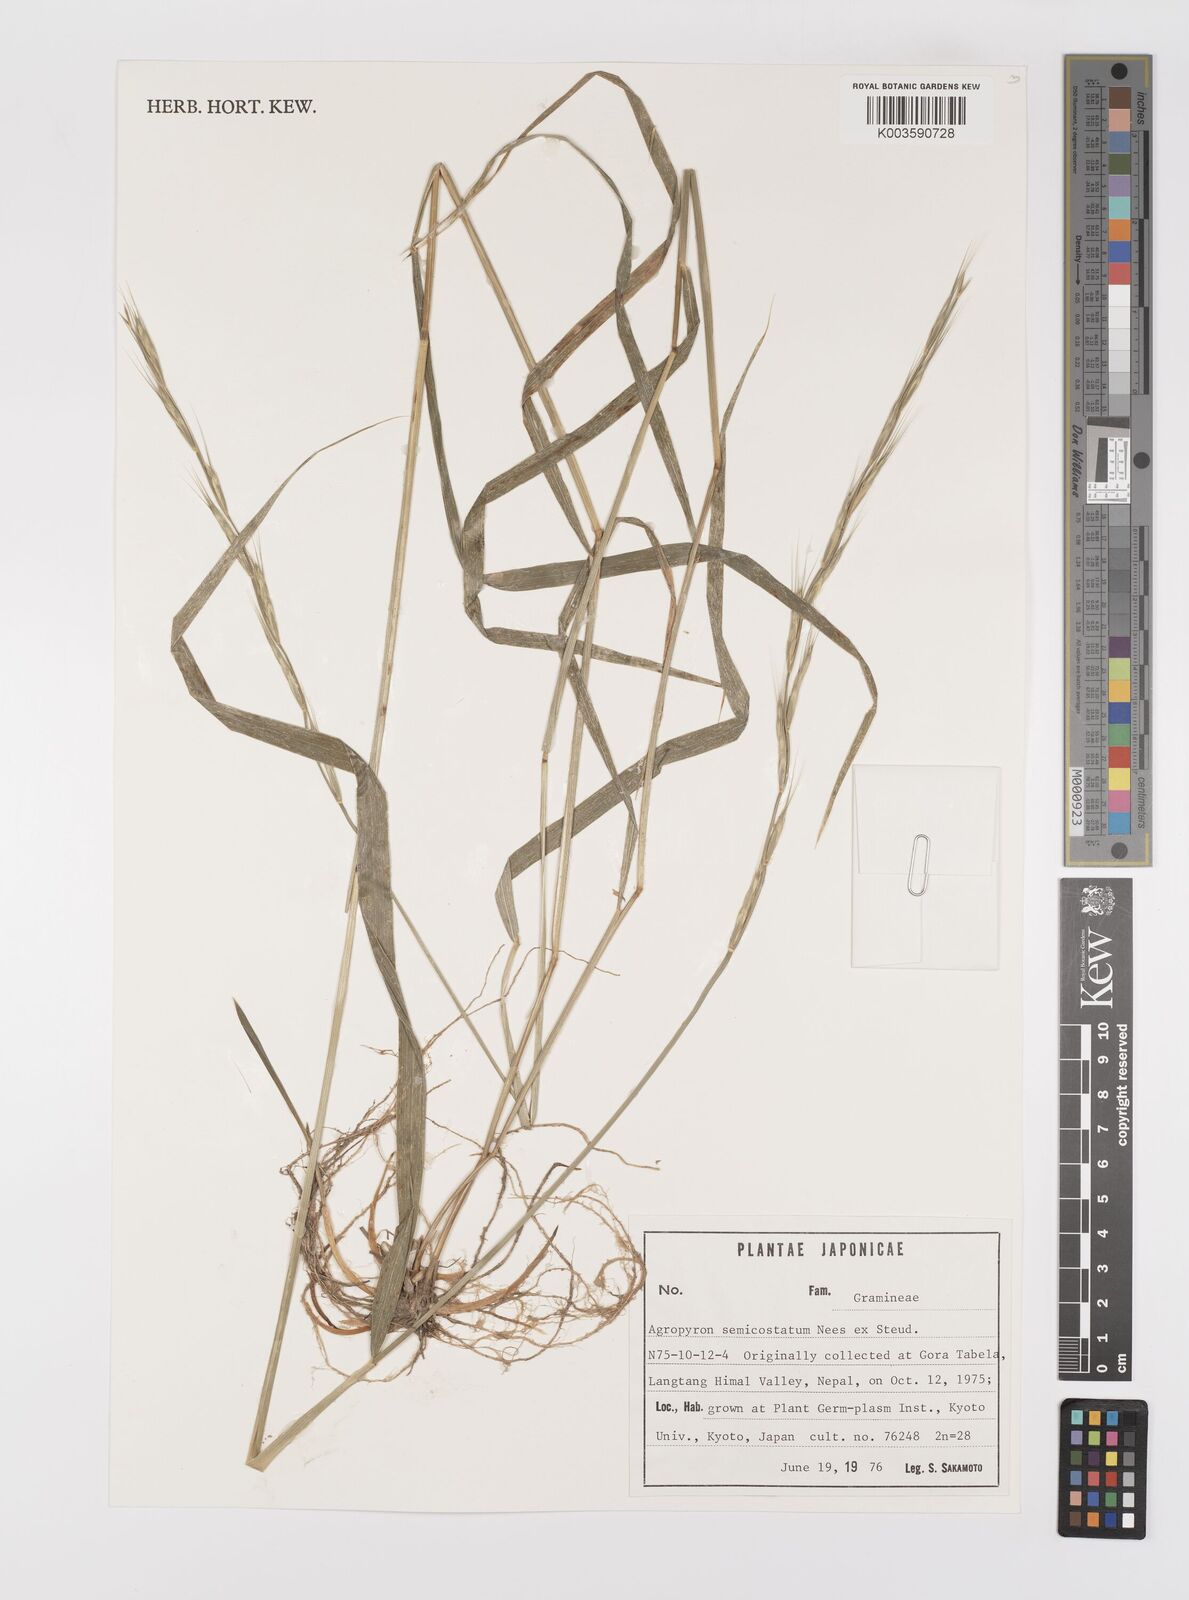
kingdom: Plantae
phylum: Tracheophyta
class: Liliopsida
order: Poales
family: Poaceae
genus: Elymus
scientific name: Elymus semicostatus
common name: Drooping wildrye
